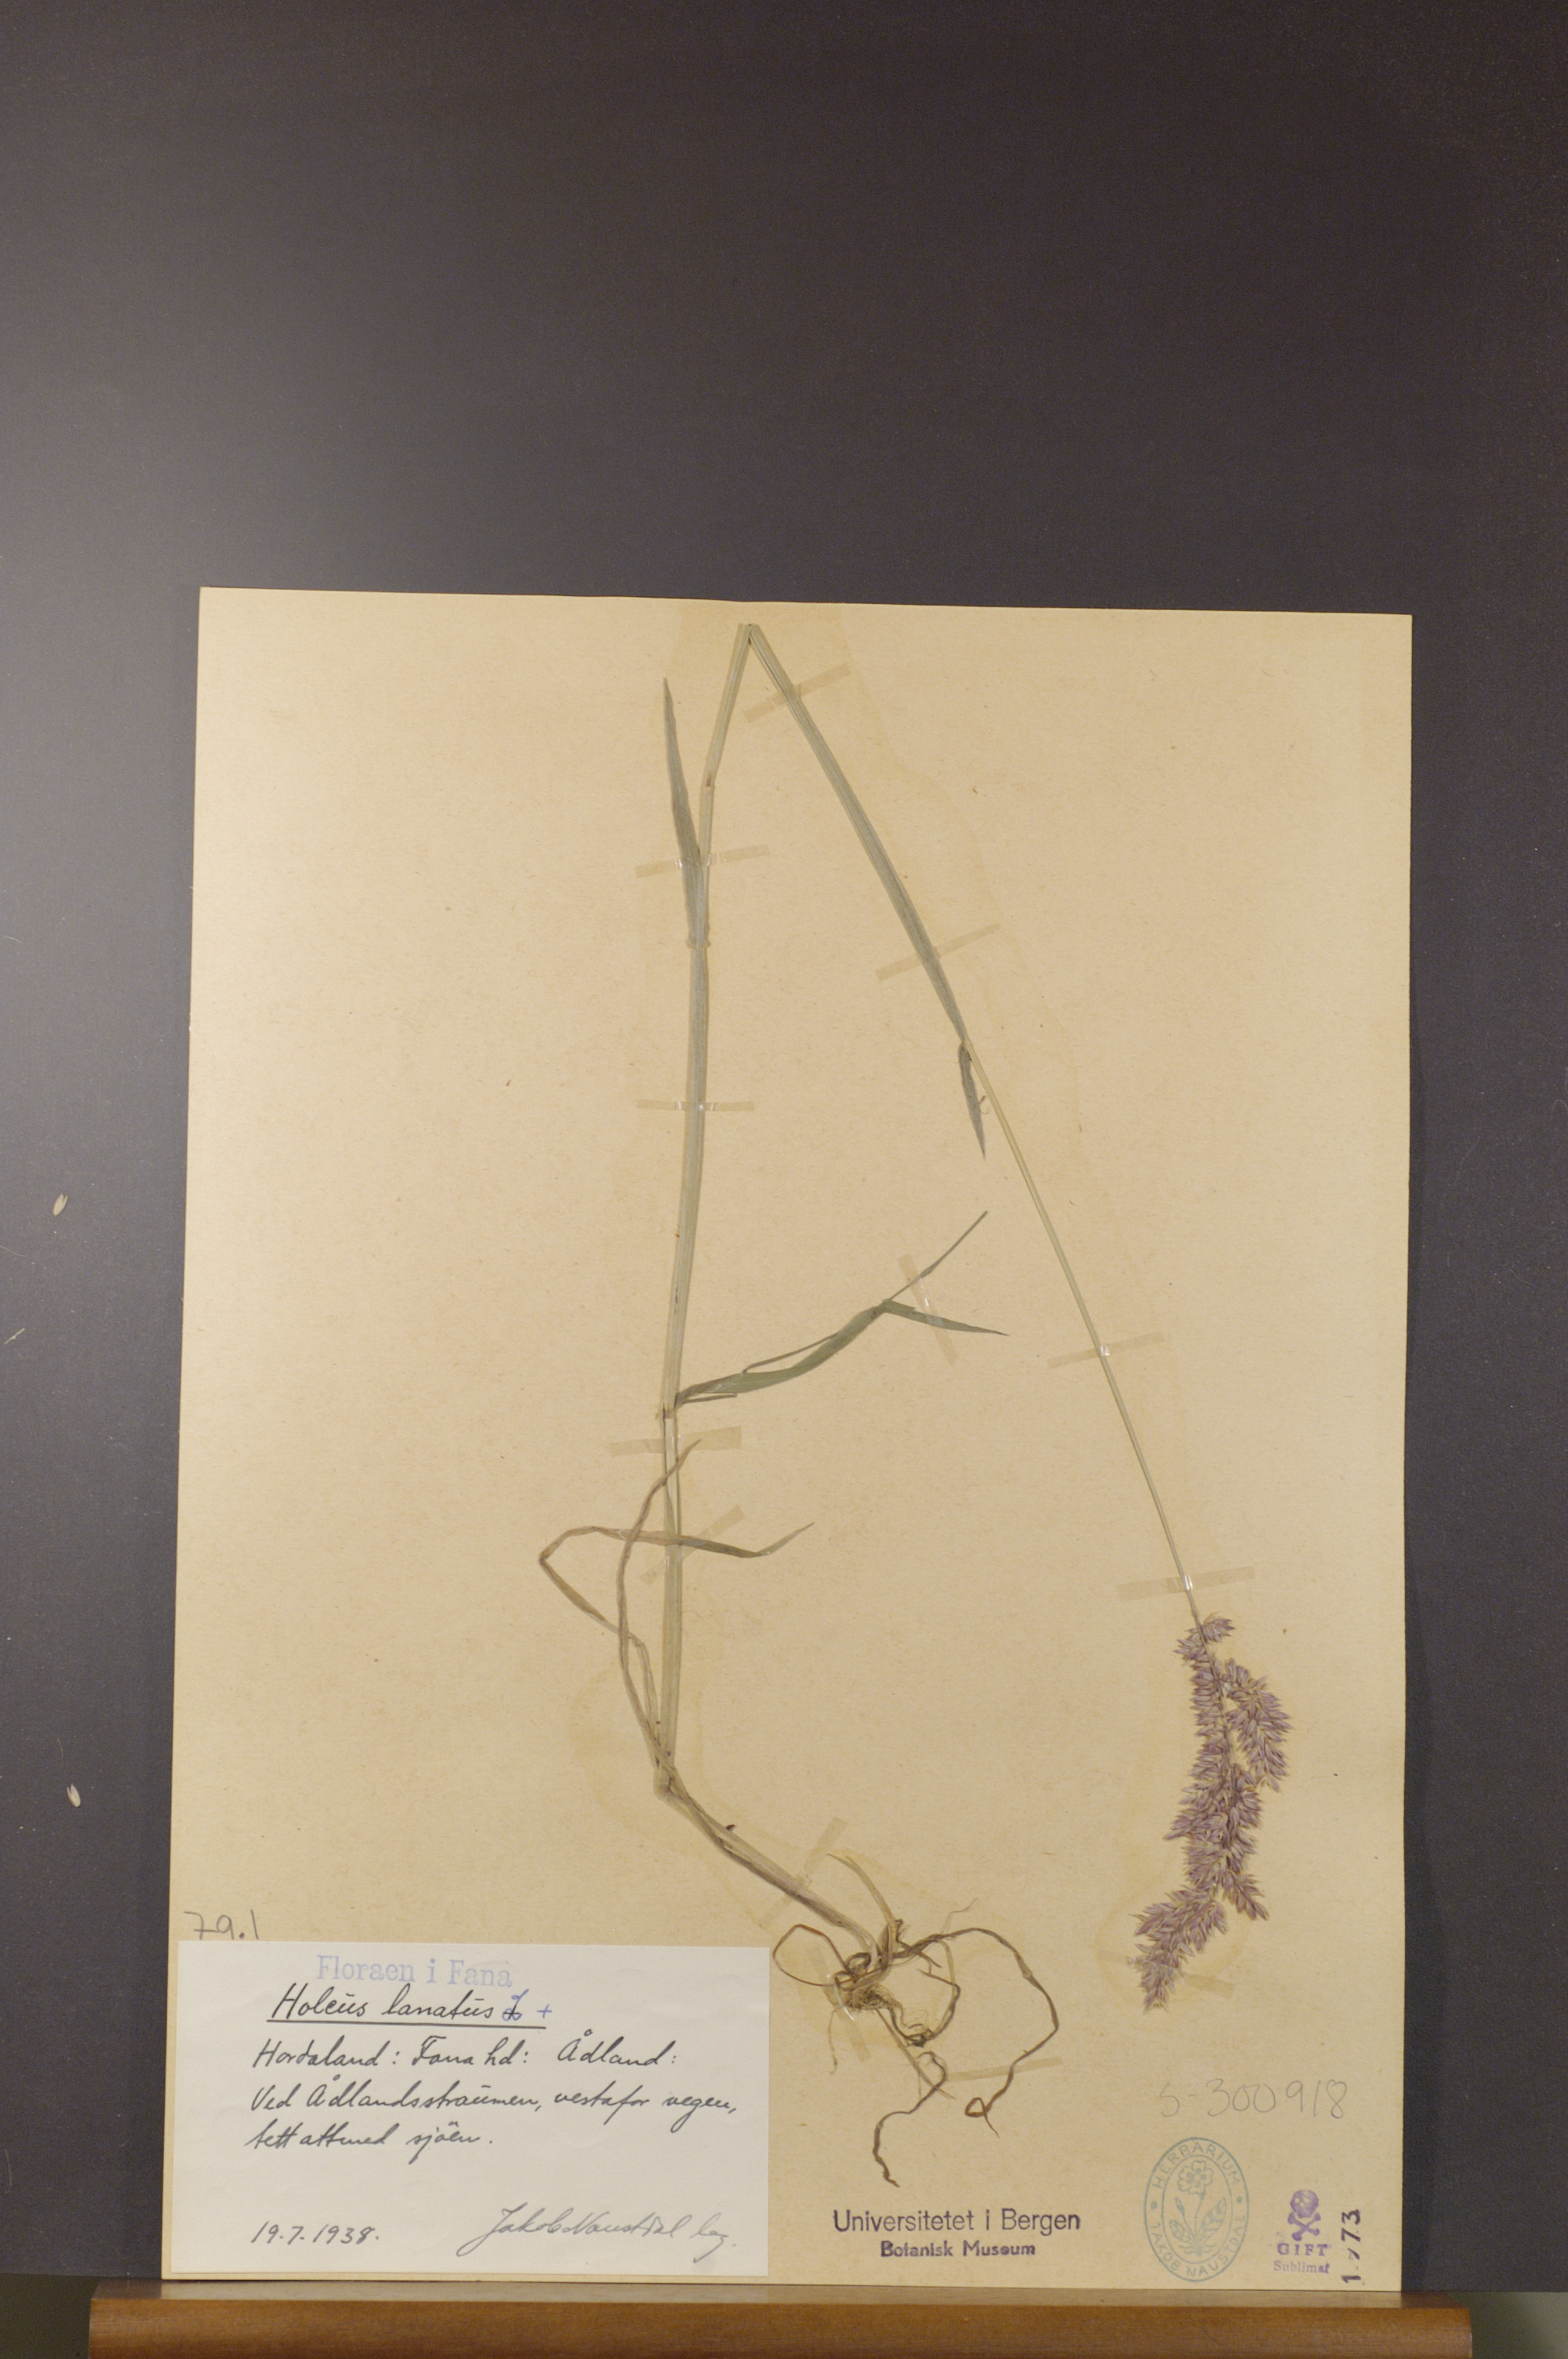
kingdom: Plantae
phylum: Tracheophyta
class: Liliopsida
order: Poales
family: Poaceae
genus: Holcus
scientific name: Holcus lanatus
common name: Yorkshire-fog
